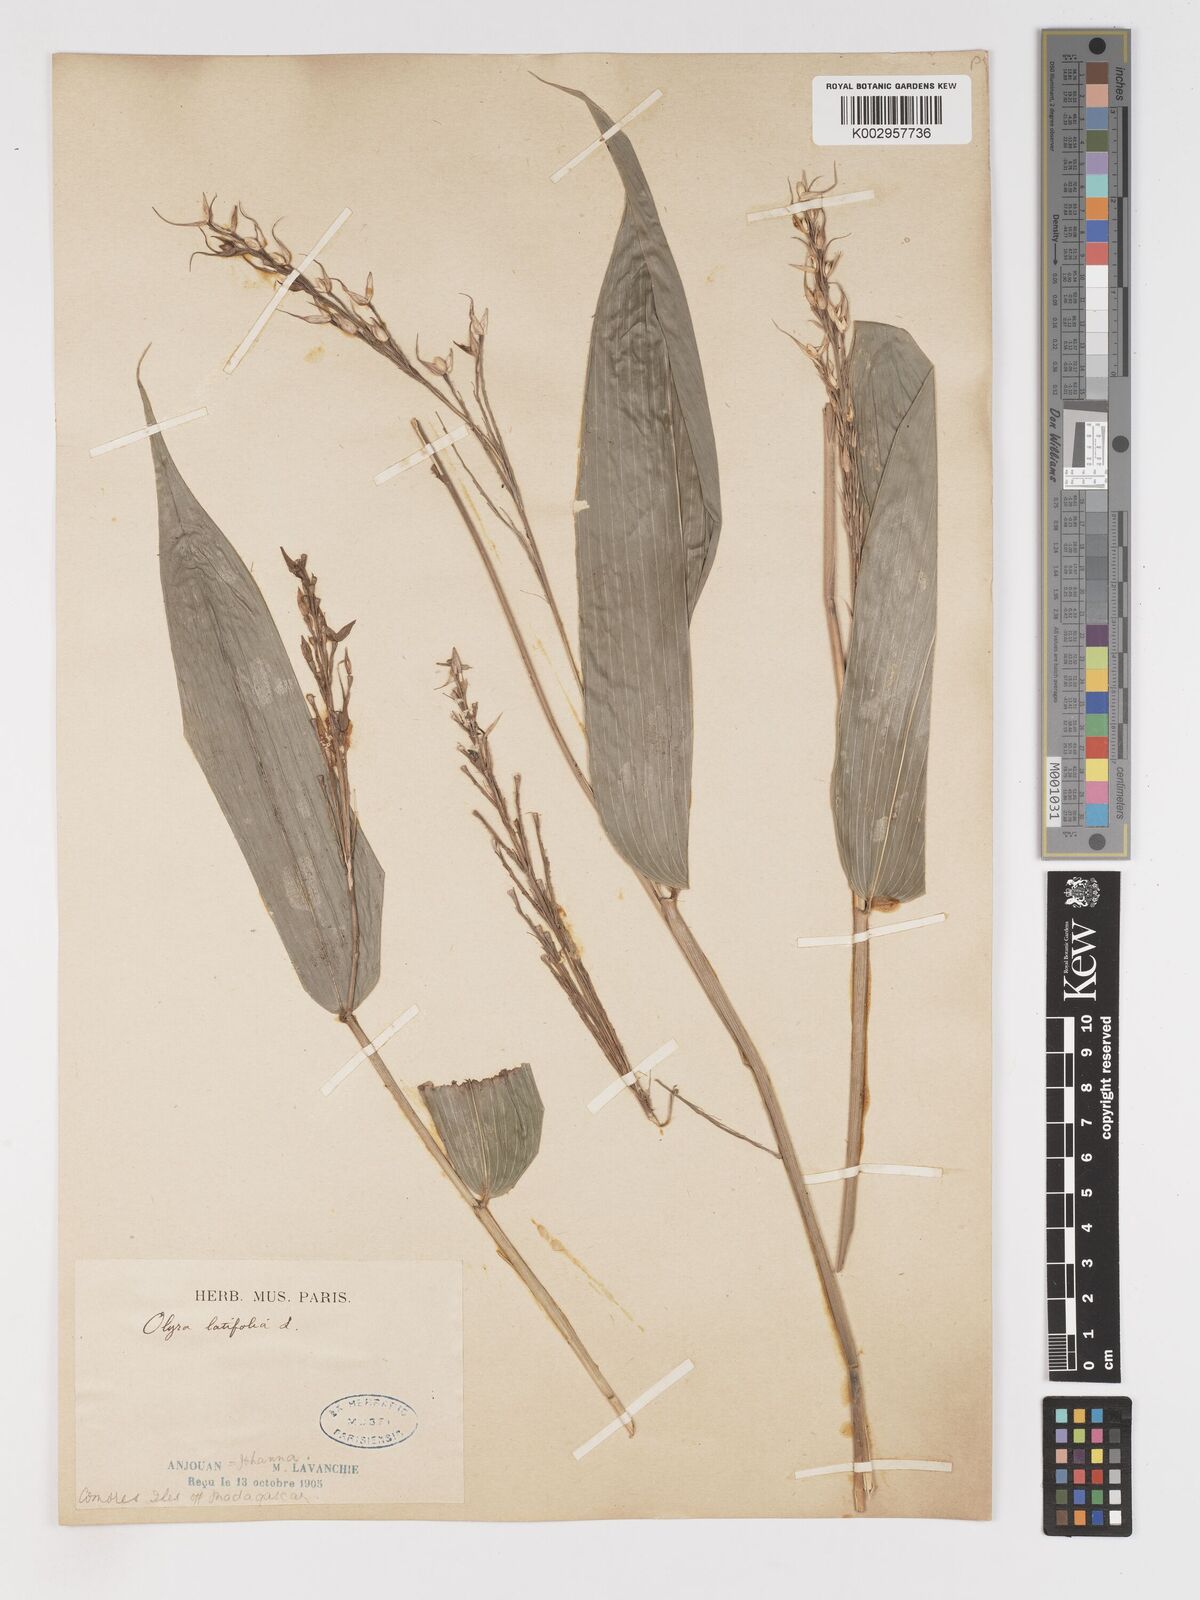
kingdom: Plantae
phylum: Tracheophyta
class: Liliopsida
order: Poales
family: Poaceae
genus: Olyra
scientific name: Olyra latifolia
